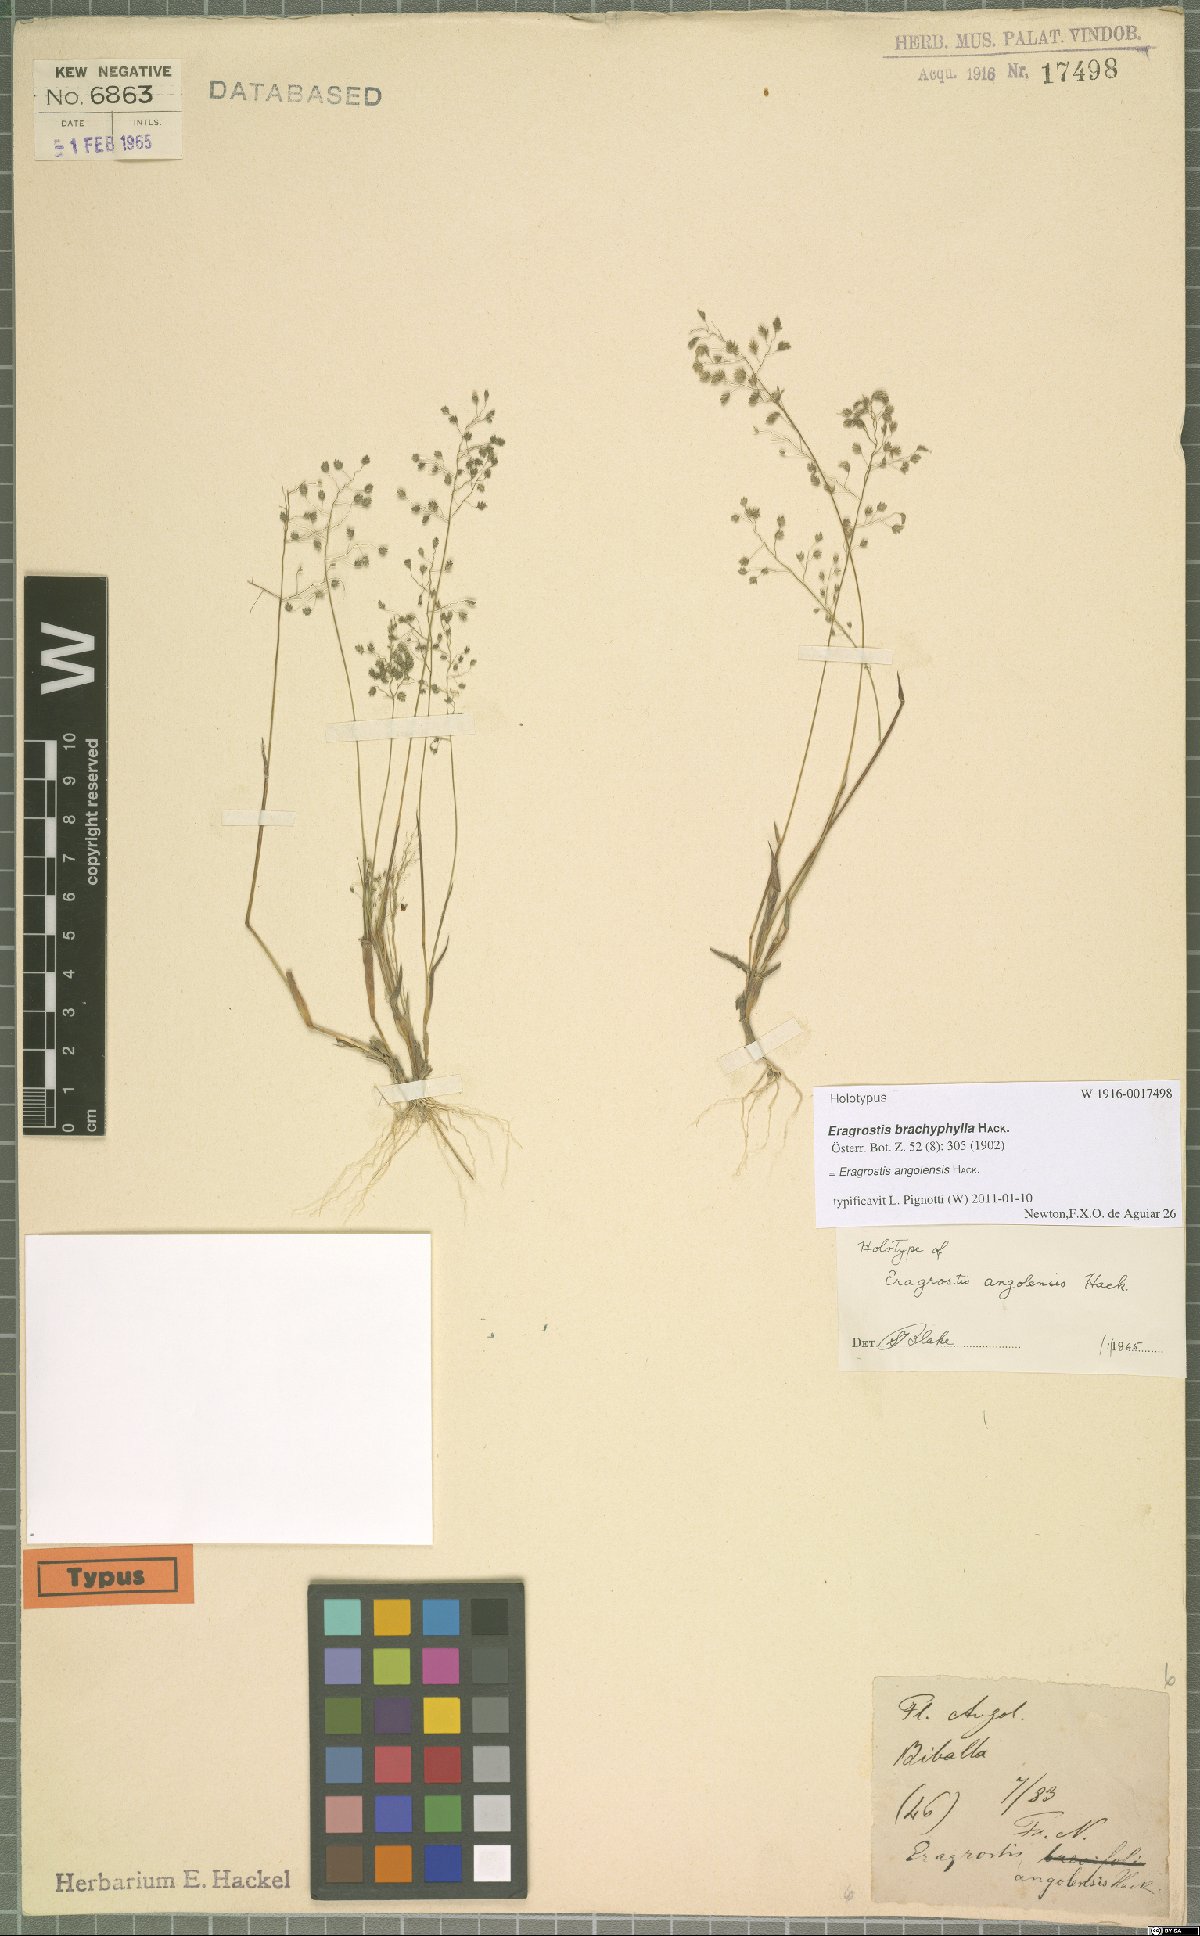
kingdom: Plantae
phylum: Tracheophyta
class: Liliopsida
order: Poales
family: Poaceae
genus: Eragrostis
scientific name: Eragrostis vacillans
